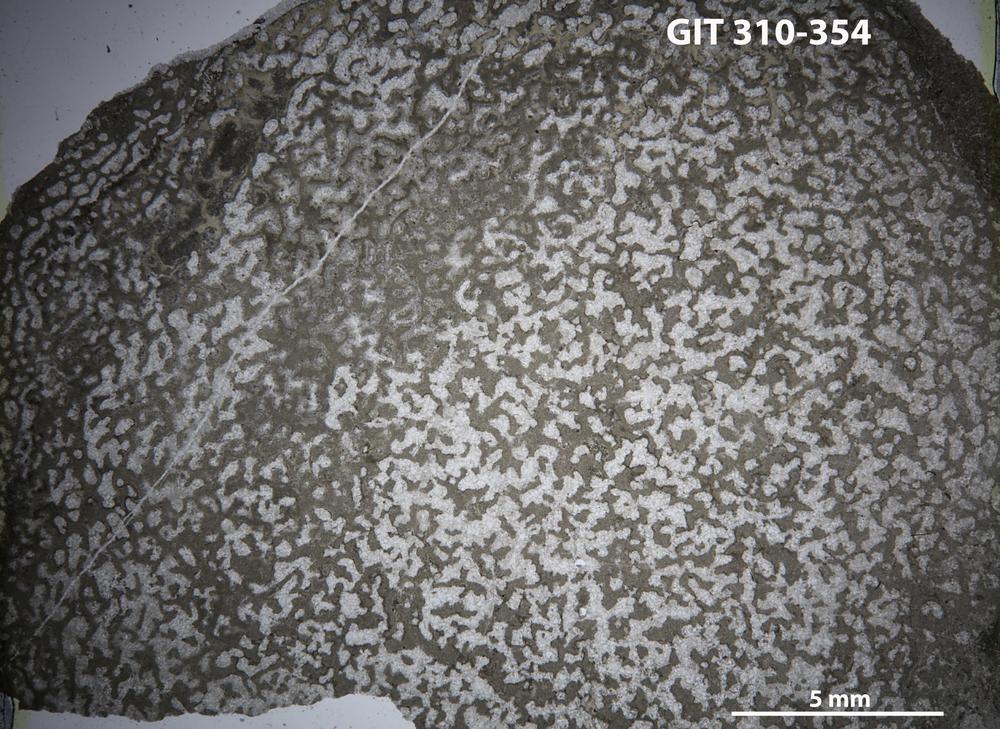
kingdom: Animalia
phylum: Porifera
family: Actinodictyidae
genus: Camptodictyon
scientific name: Camptodictyon
